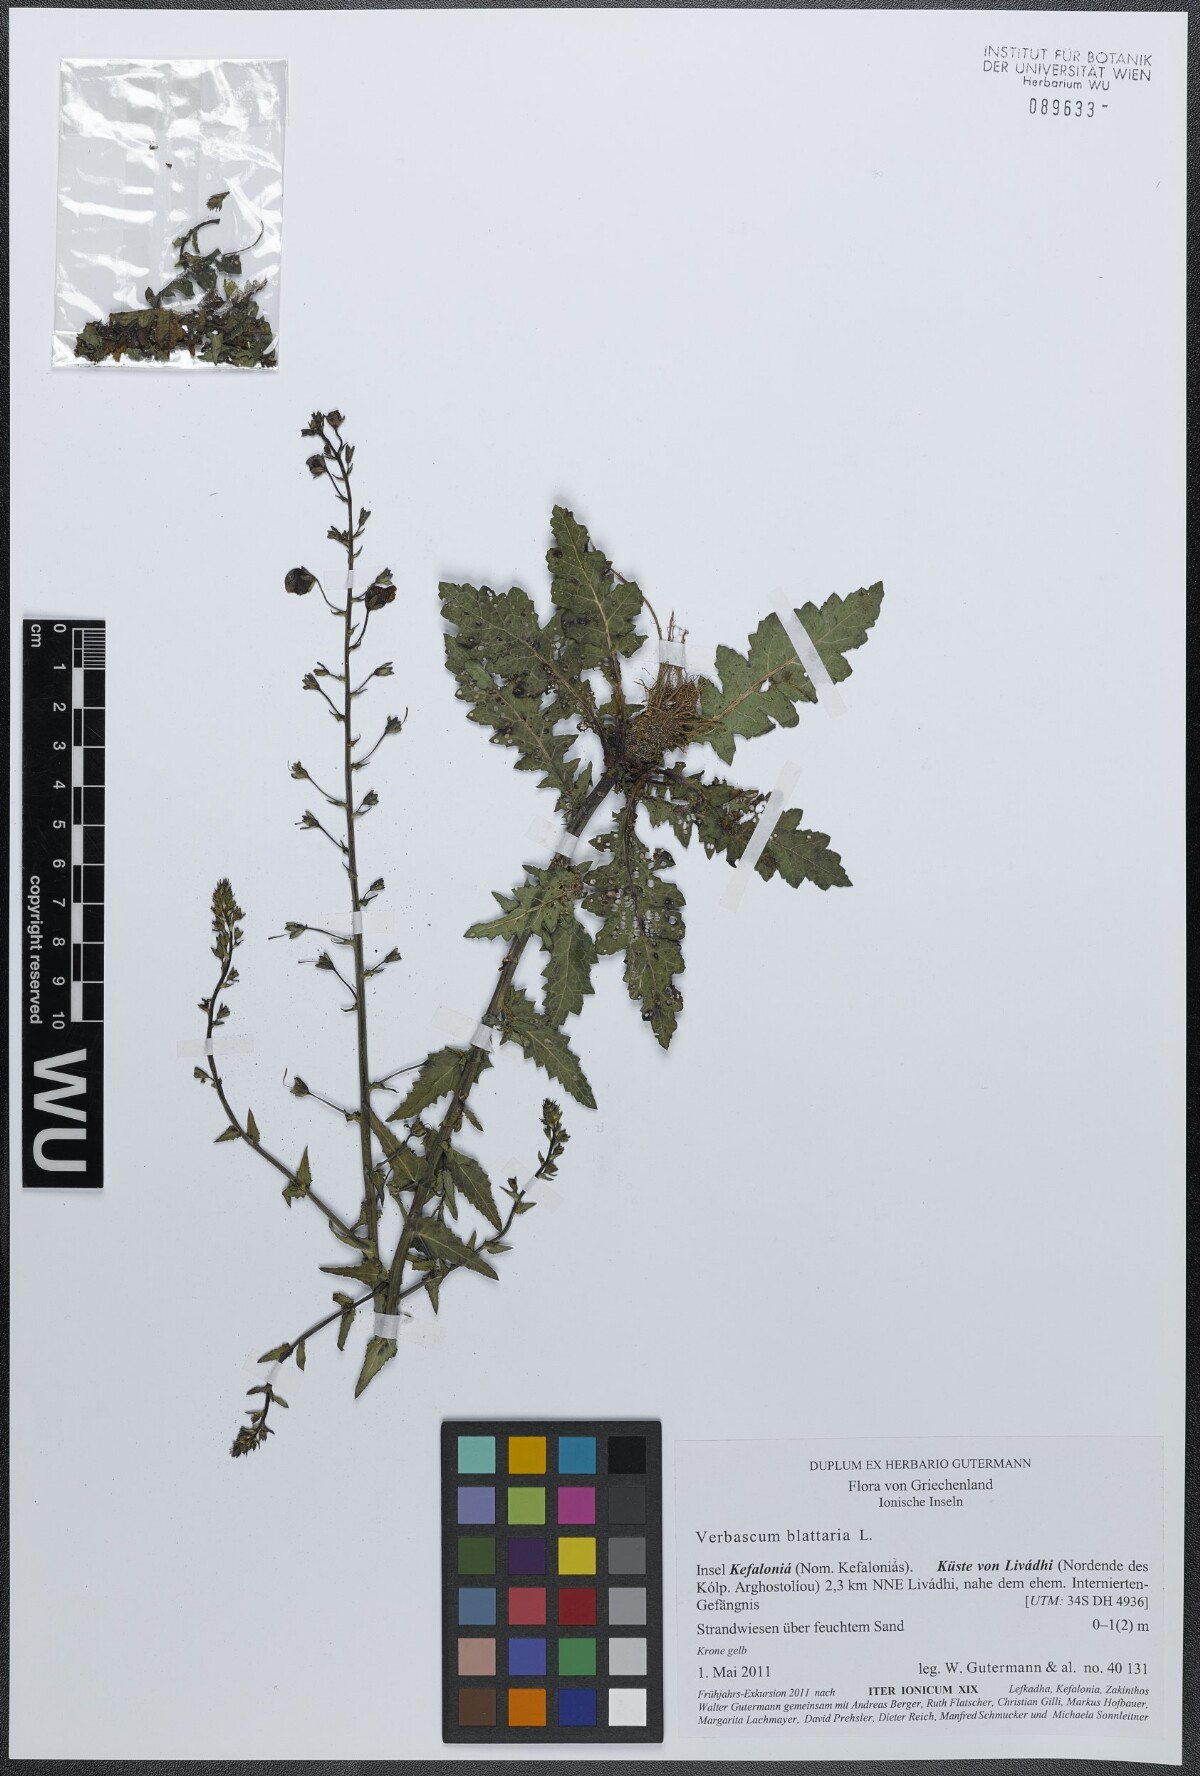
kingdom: Plantae
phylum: Tracheophyta
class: Magnoliopsida
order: Lamiales
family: Scrophulariaceae
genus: Verbascum
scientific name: Verbascum blattaria
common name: Moth mullein
